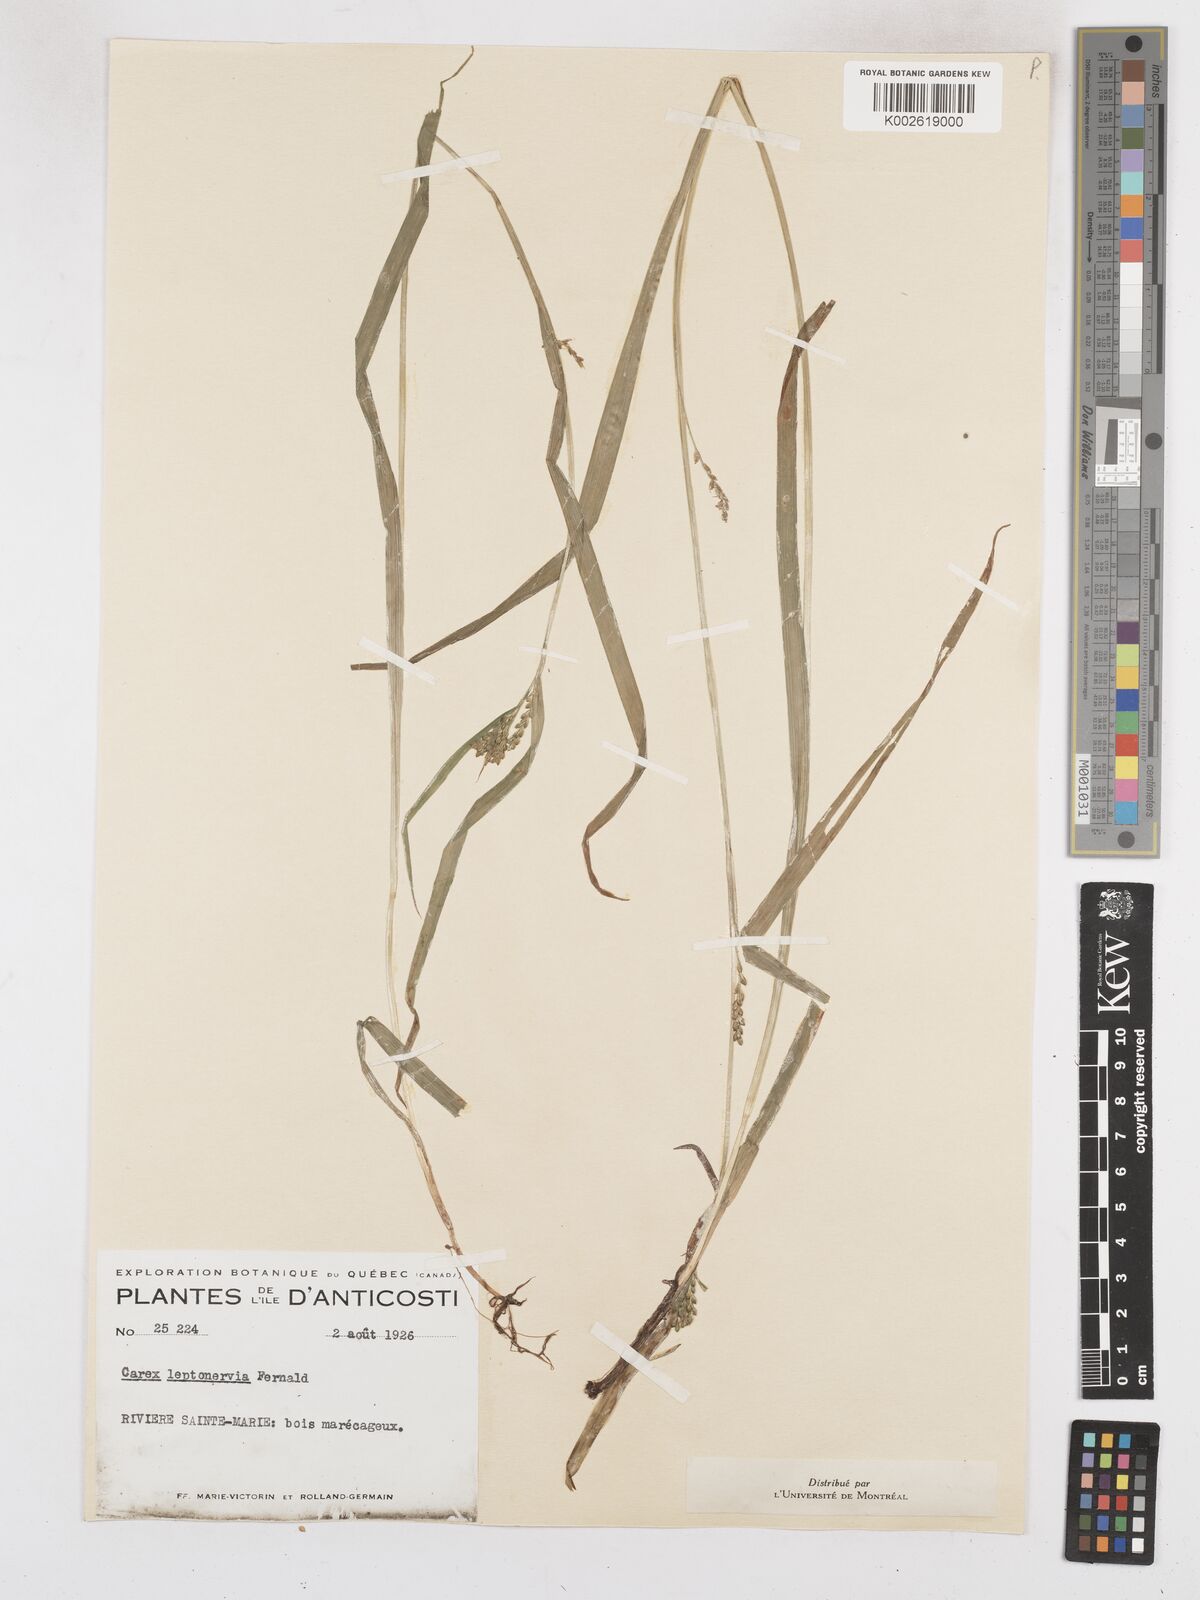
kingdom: Plantae
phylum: Tracheophyta
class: Liliopsida
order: Poales
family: Cyperaceae
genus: Carex
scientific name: Carex leptonervia
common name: Few-nerved wood sedge
